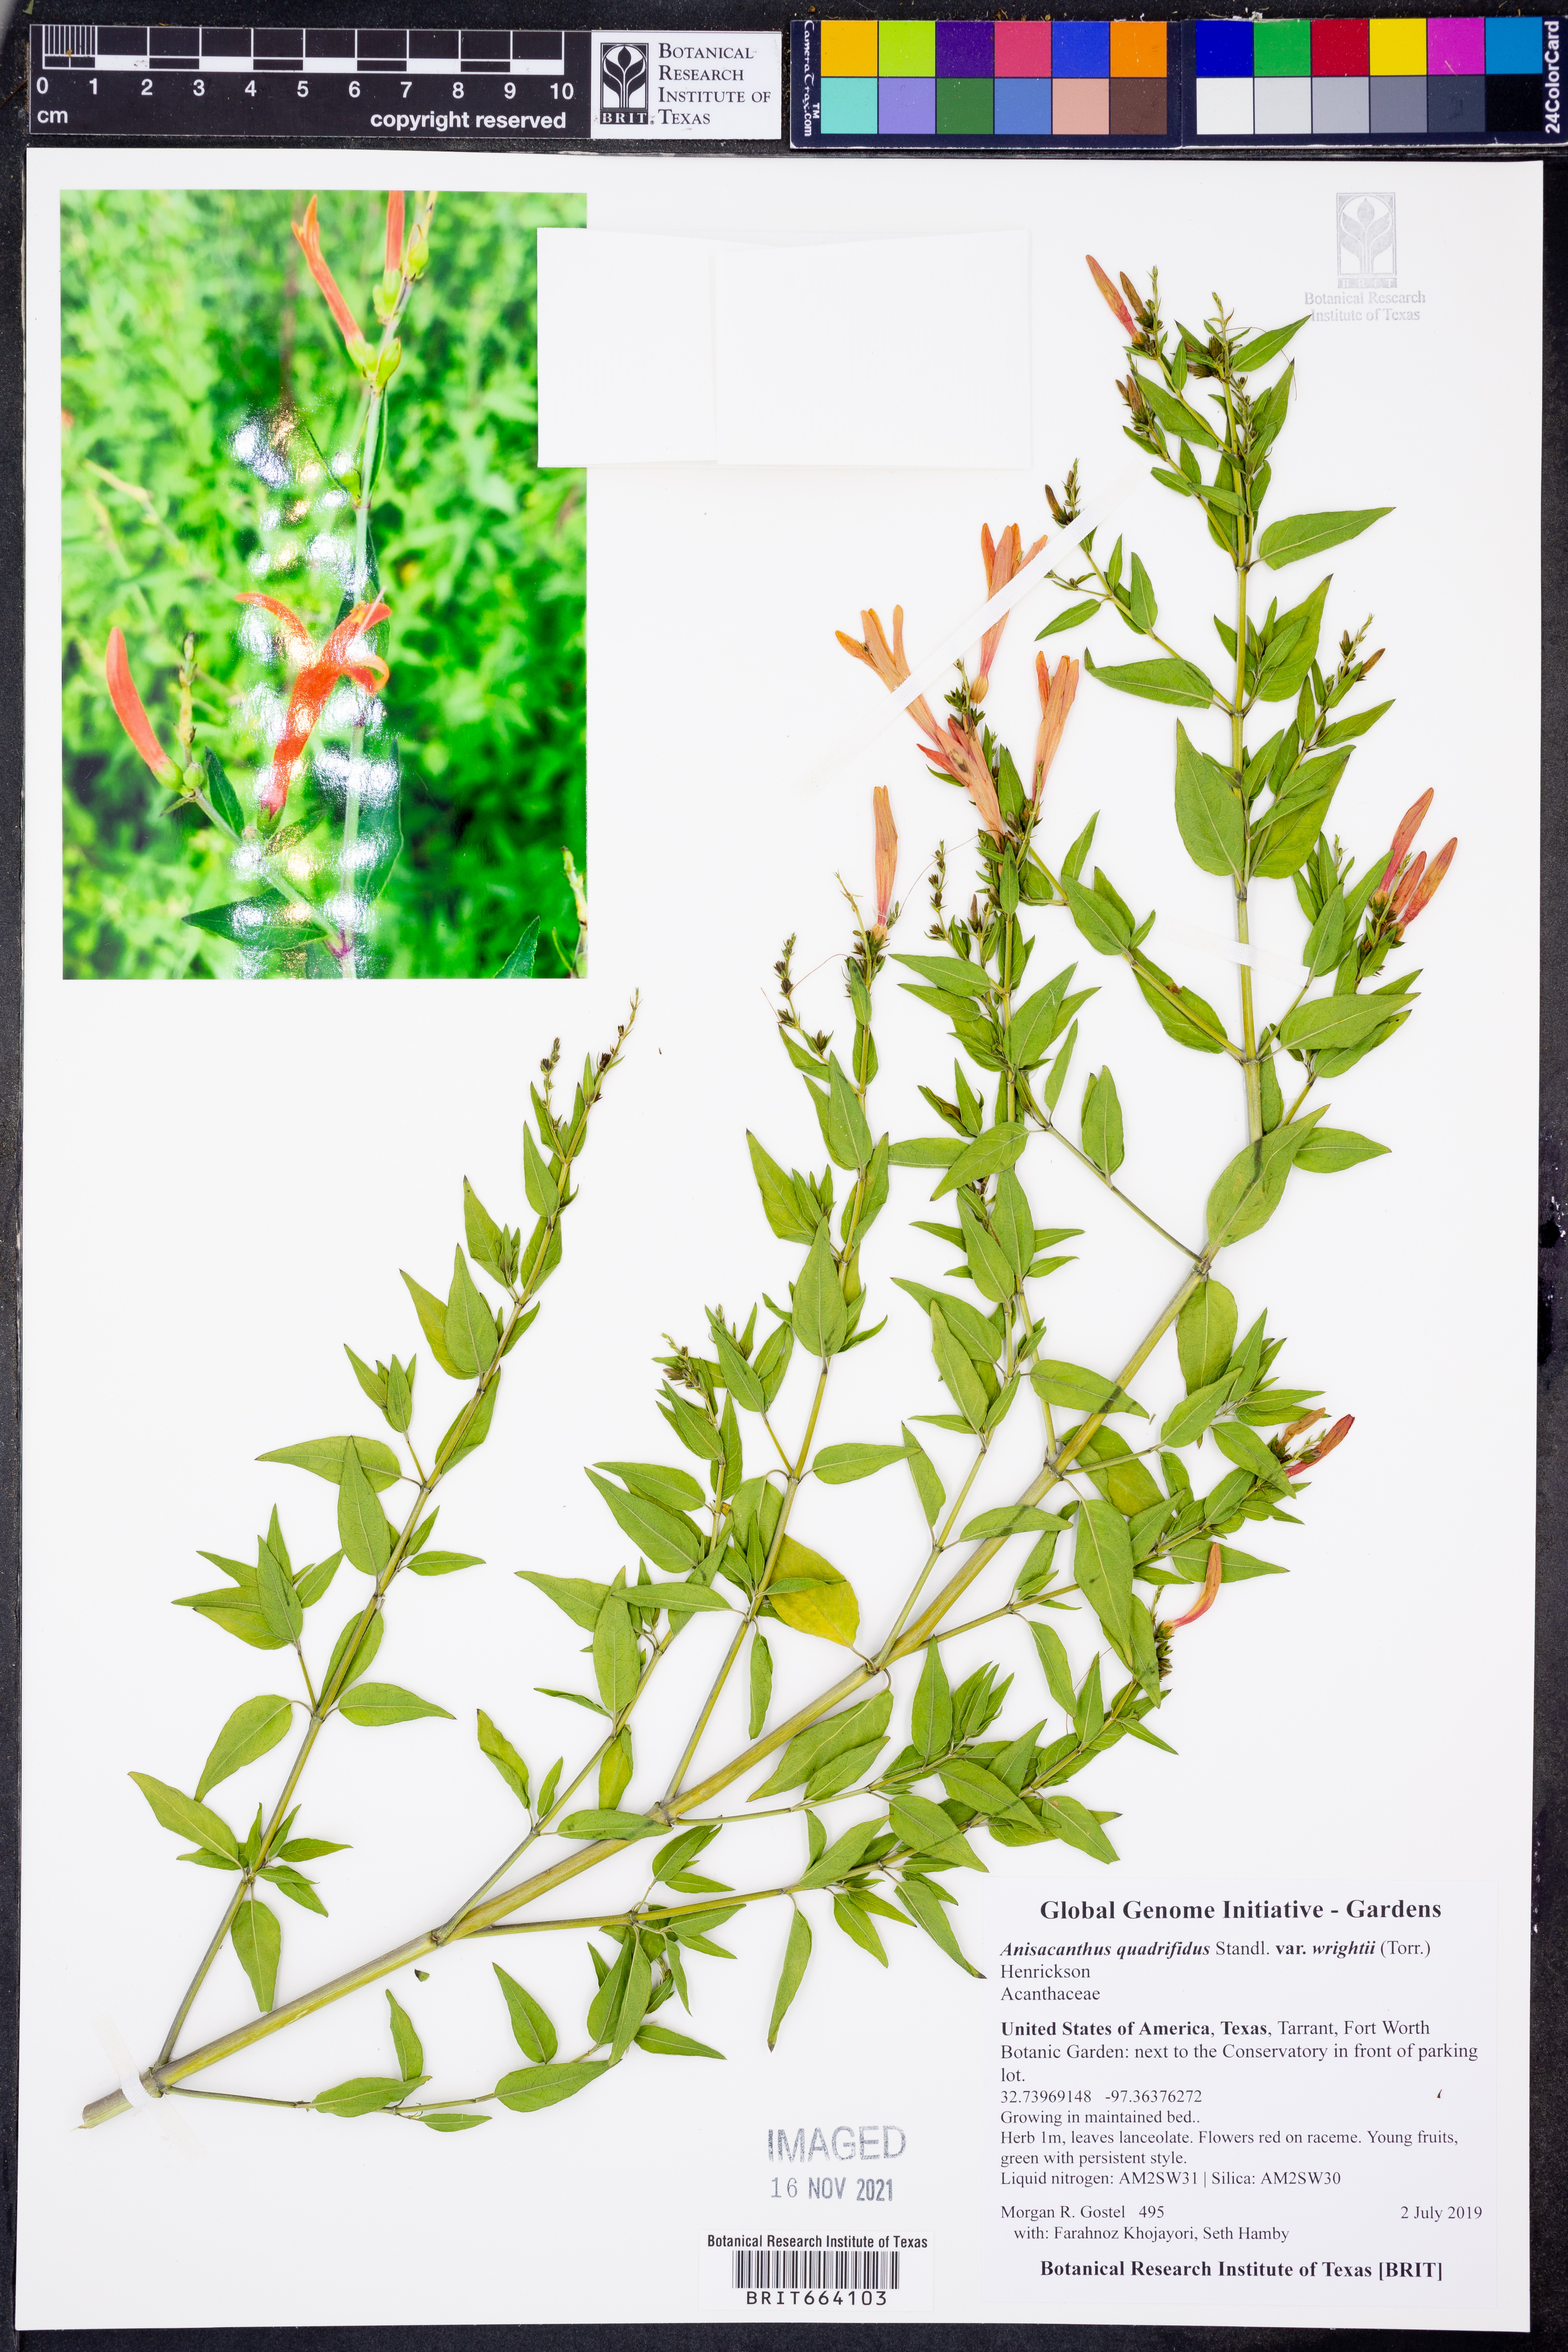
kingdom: Plantae
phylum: Tracheophyta
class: Magnoliopsida
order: Lamiales
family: Acanthaceae
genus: Anisacanthus
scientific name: Anisacanthus quadrifidus
